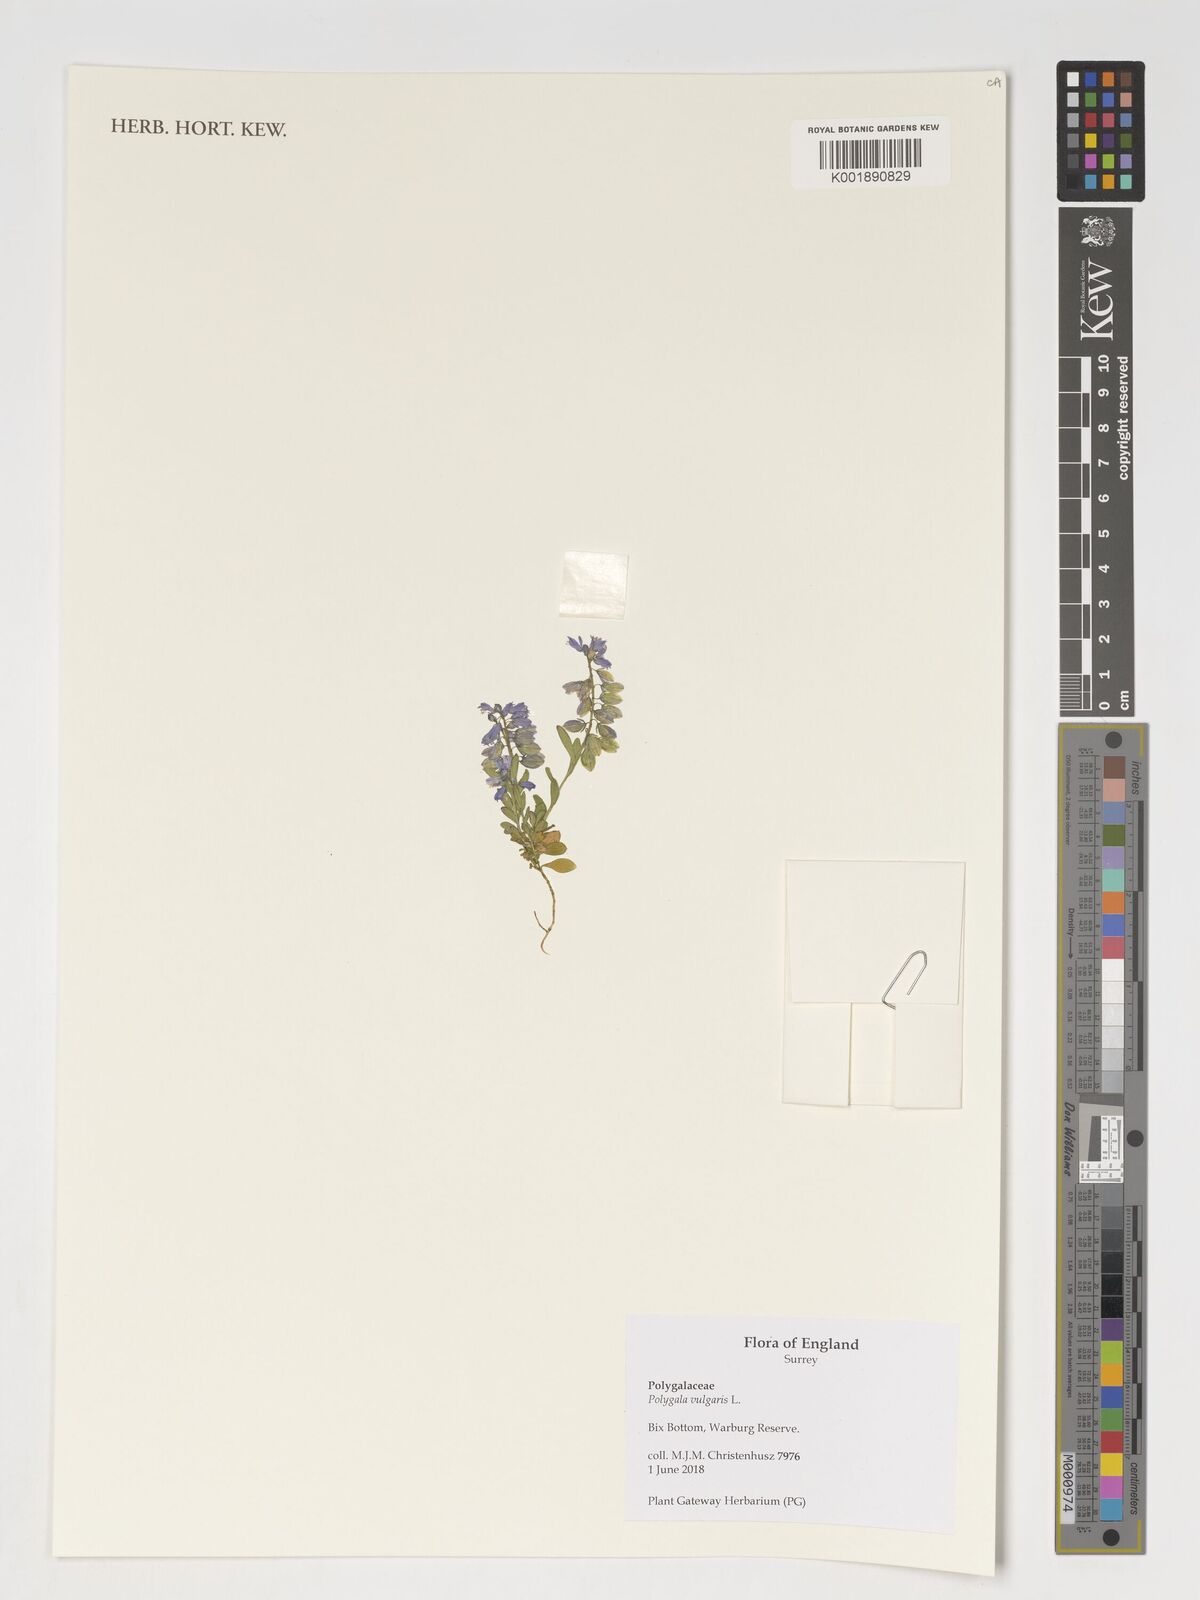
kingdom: Plantae
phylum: Tracheophyta
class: Magnoliopsida
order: Fabales
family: Polygalaceae
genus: Polygala
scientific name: Polygala vulgaris
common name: Common milkwort
